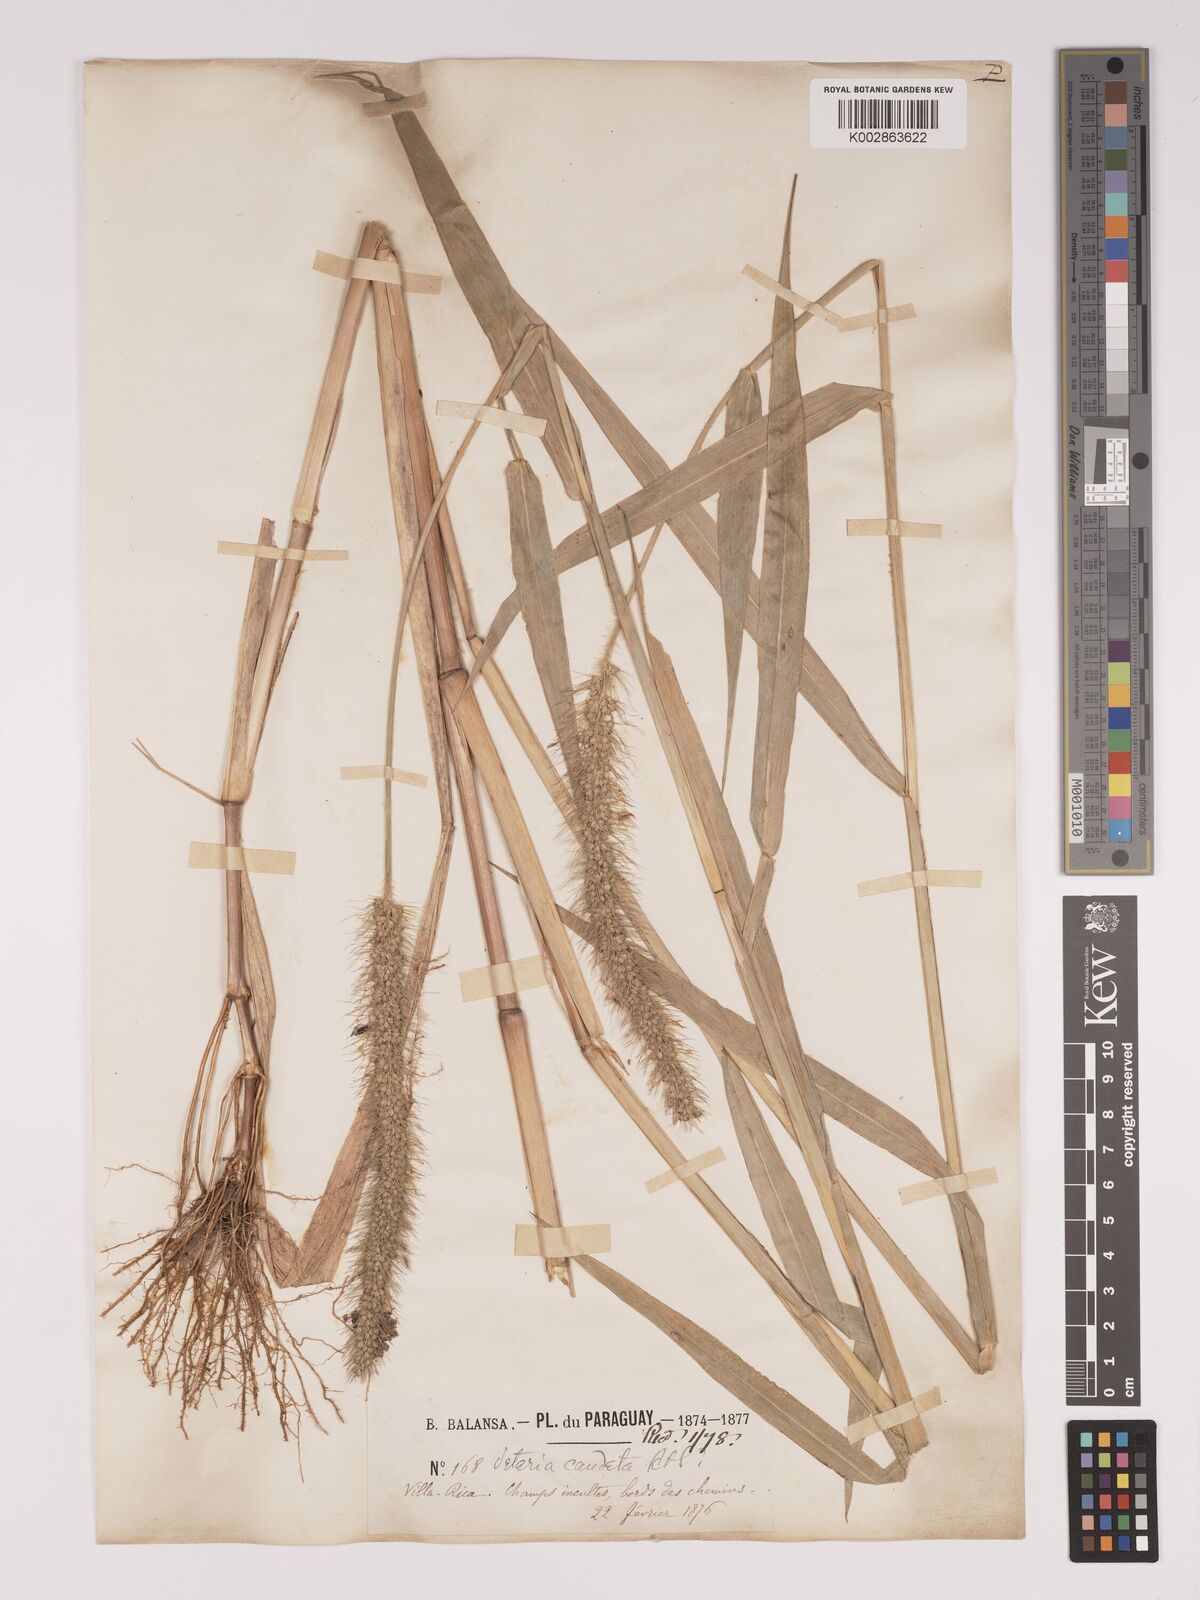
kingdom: Plantae
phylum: Tracheophyta
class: Liliopsida
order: Poales
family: Poaceae
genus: Setaria
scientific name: Setaria tenax
